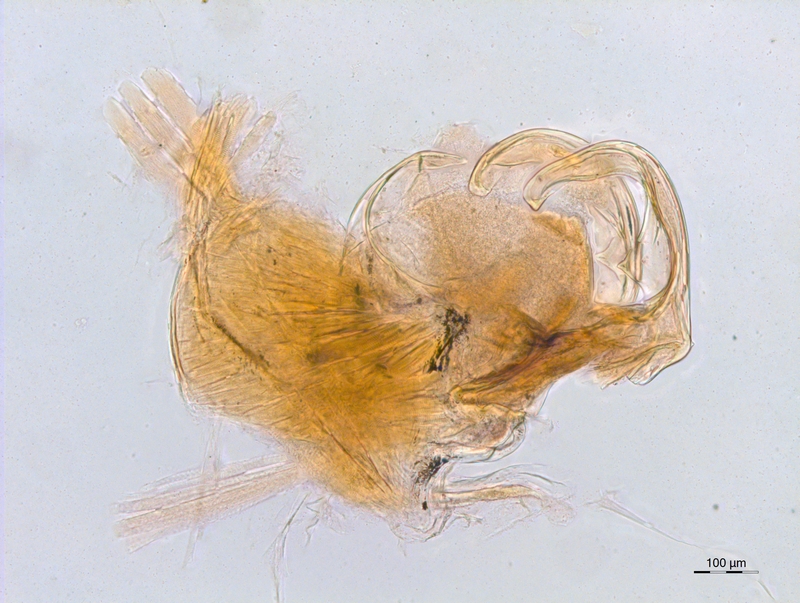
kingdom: Animalia
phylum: Arthropoda
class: Diplopoda
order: Chordeumatida
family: Craspedosomatidae
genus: Atractosoma
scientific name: Atractosoma blechnorum
